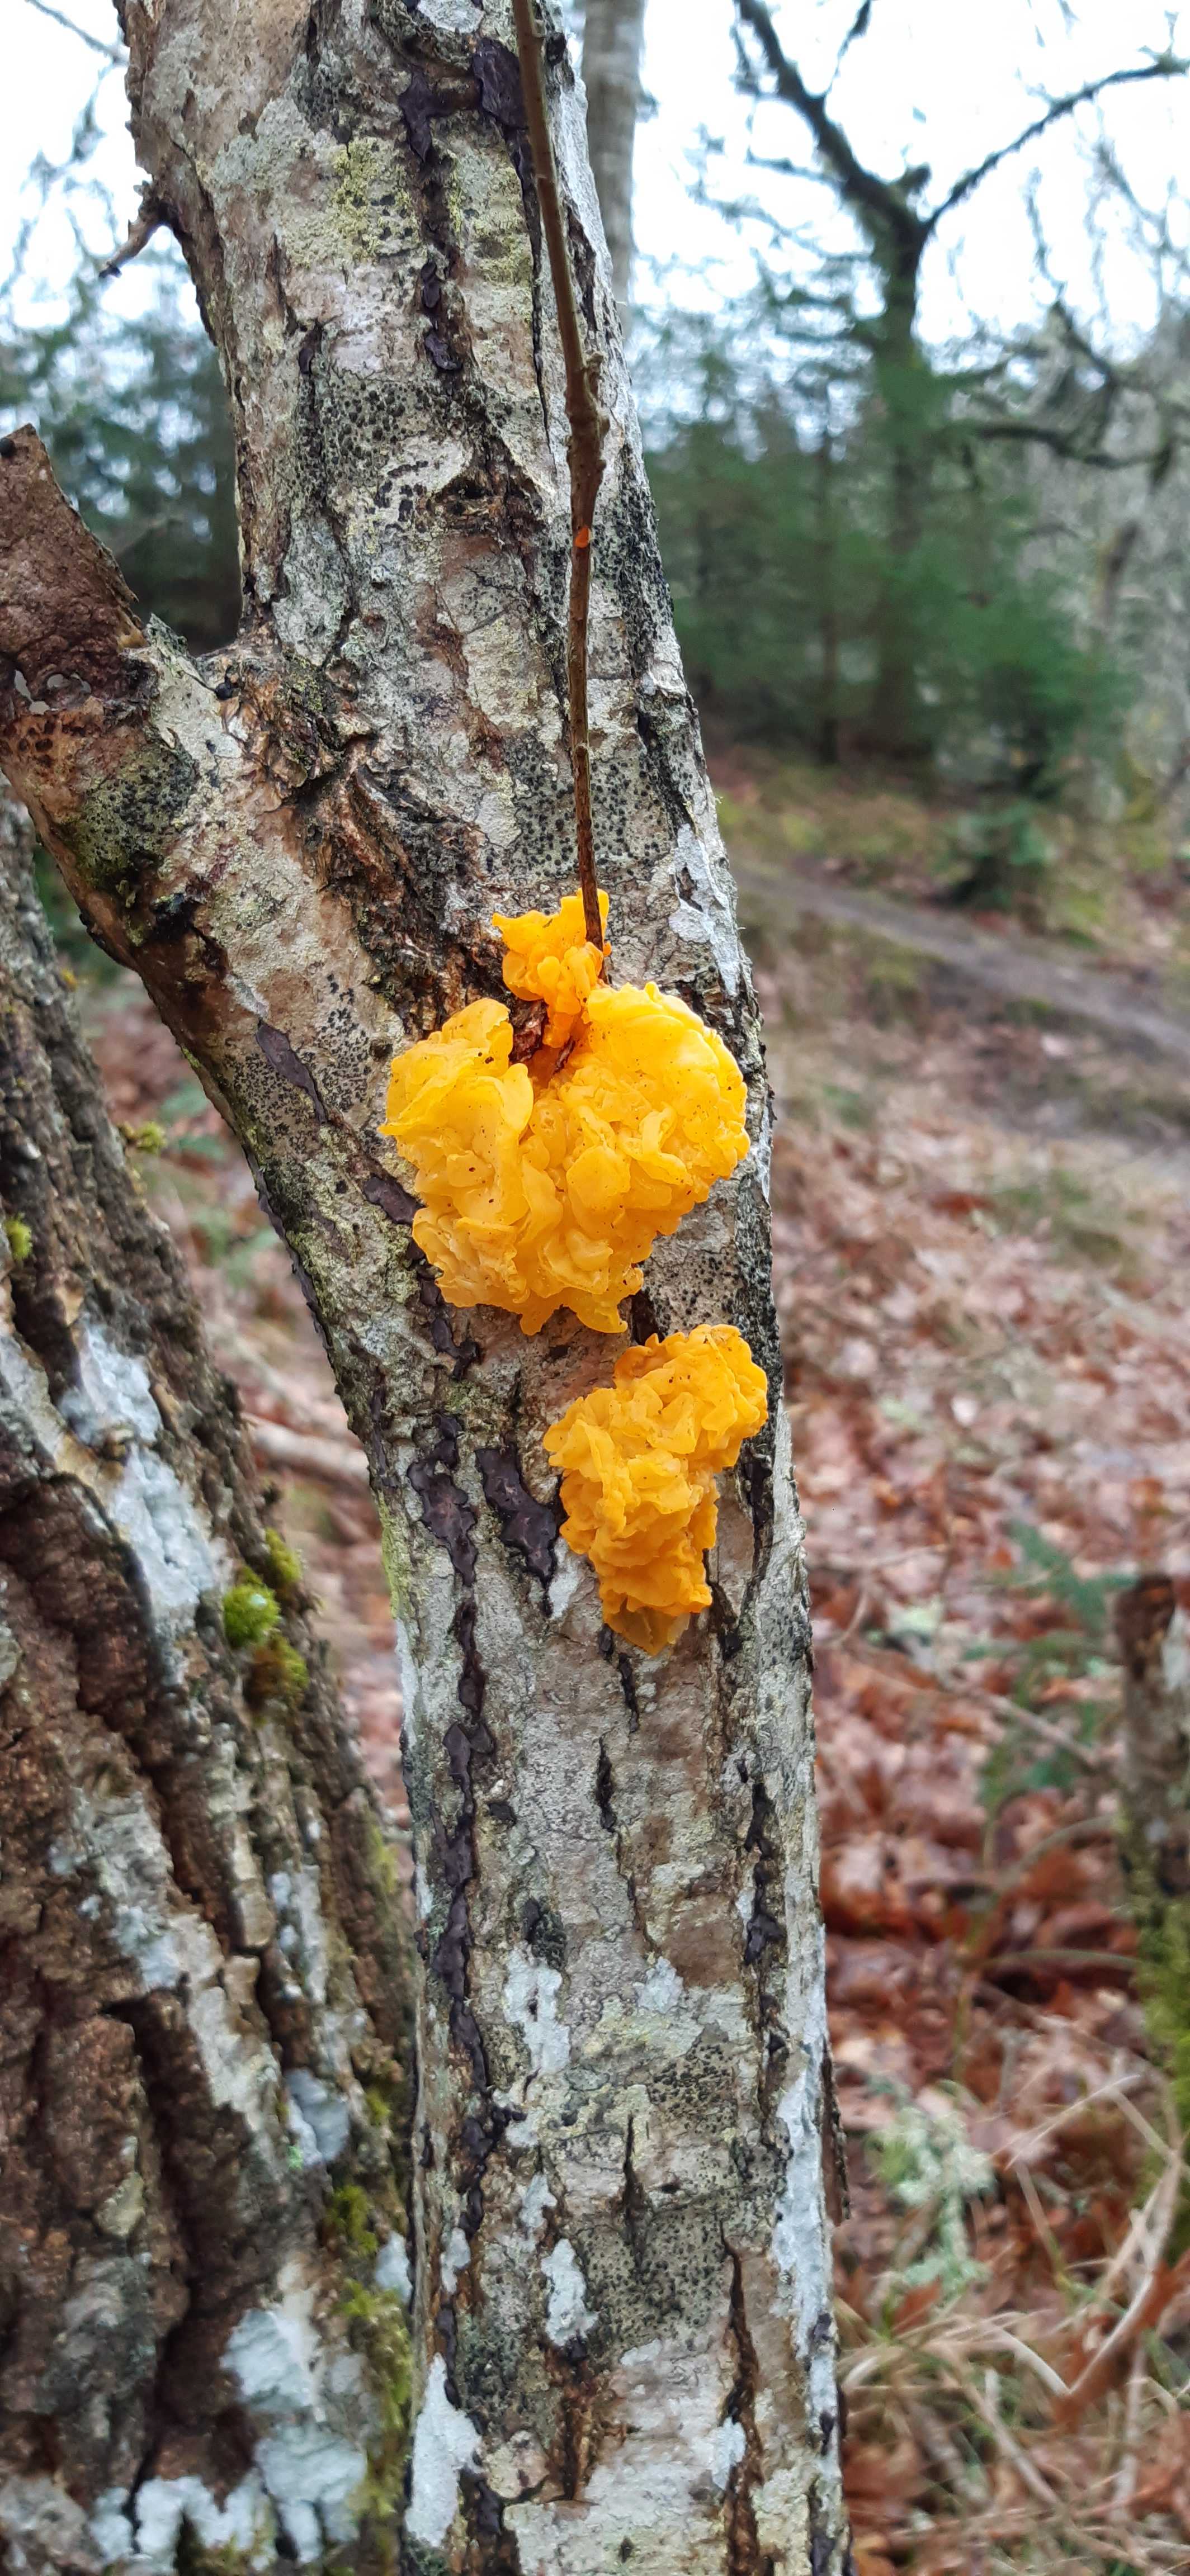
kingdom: Fungi
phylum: Basidiomycota
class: Tremellomycetes
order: Tremellales
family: Tremellaceae
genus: Tremella
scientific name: Tremella mesenterica
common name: gul bævresvamp
